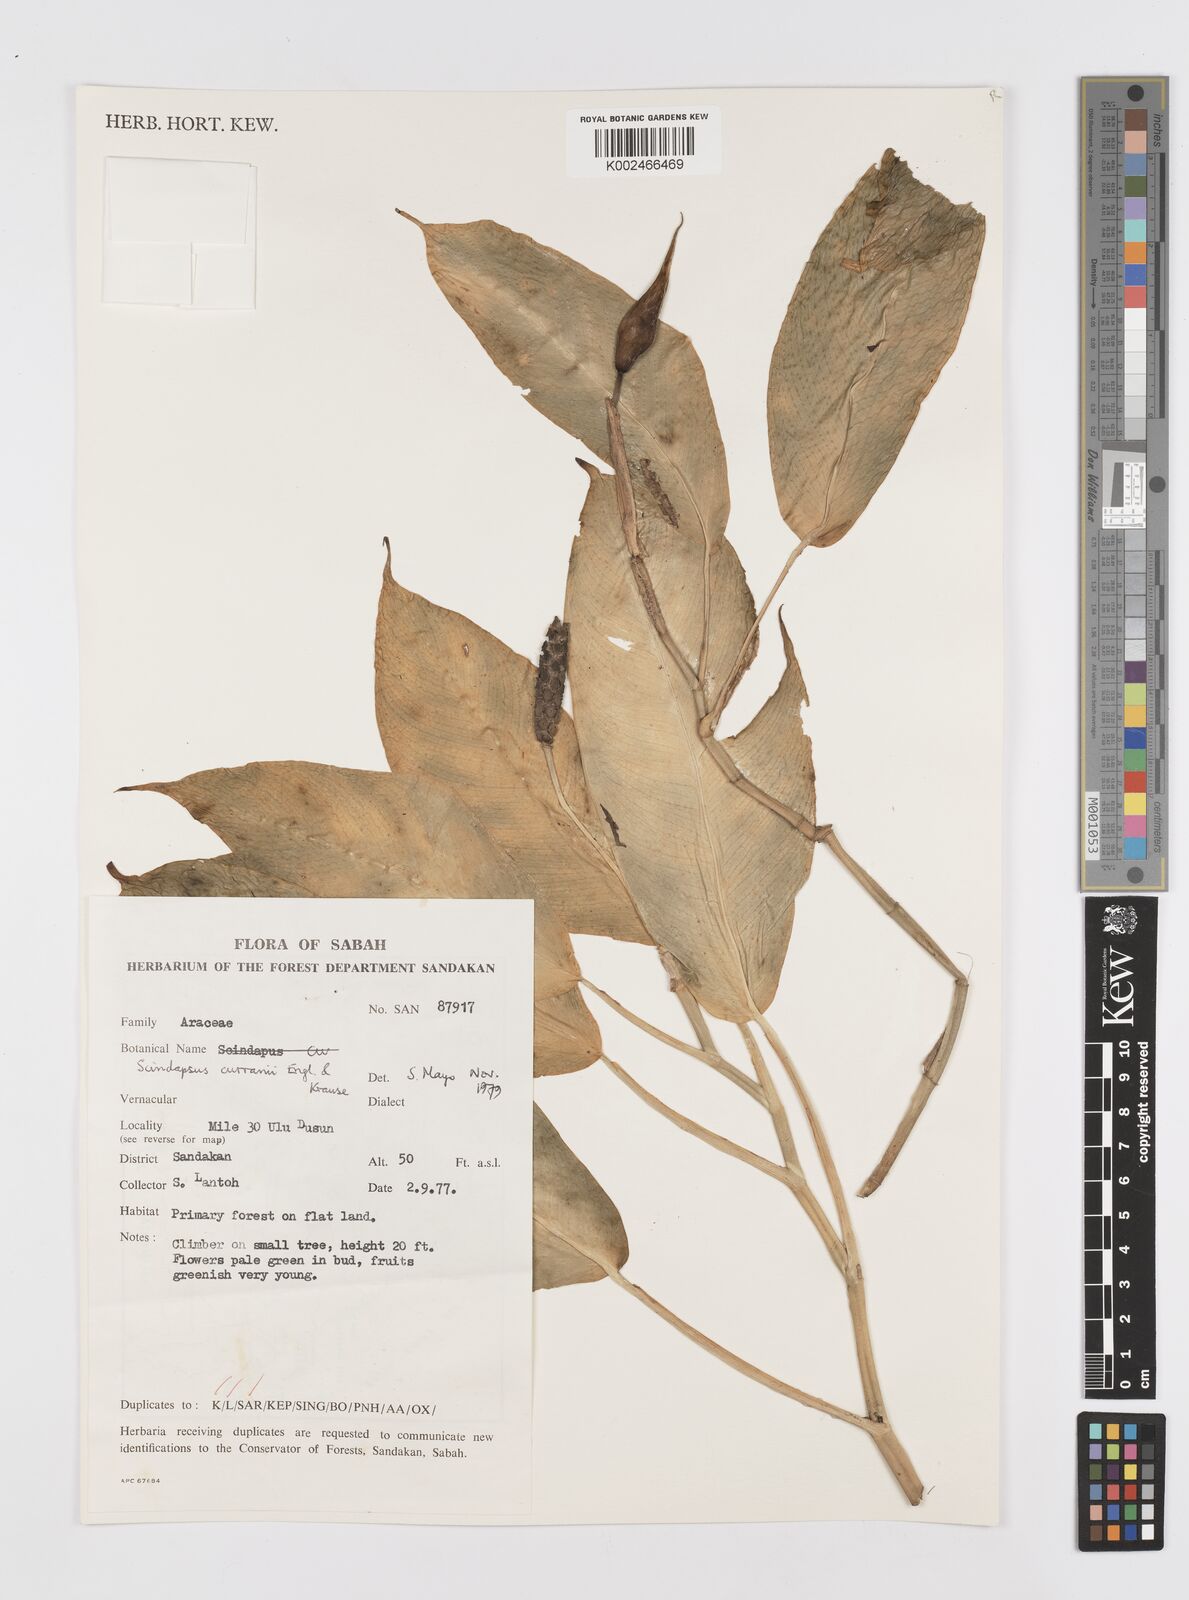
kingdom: Plantae
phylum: Tracheophyta
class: Liliopsida
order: Alismatales
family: Araceae
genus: Scindapsus
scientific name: Scindapsus curranii
